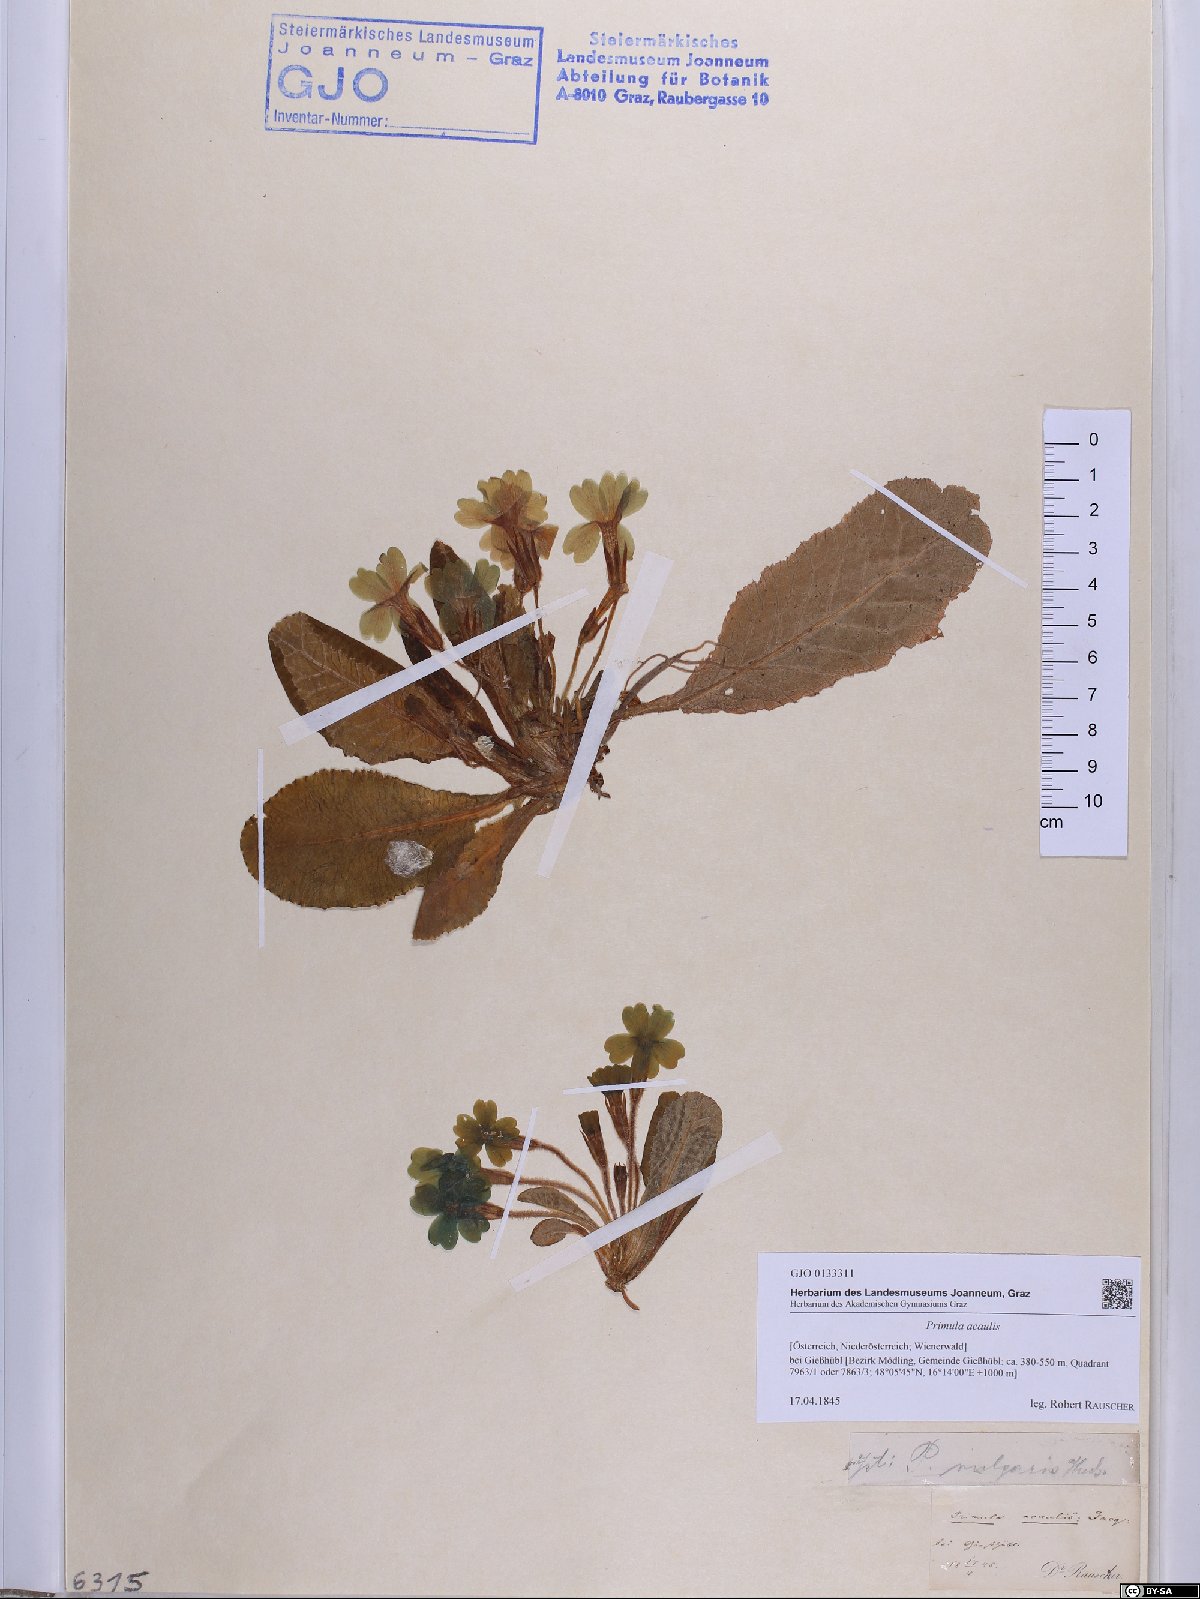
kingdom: Plantae
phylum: Tracheophyta
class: Magnoliopsida
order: Ericales
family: Primulaceae
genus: Primula
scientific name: Primula vulgaris
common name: Primrose
